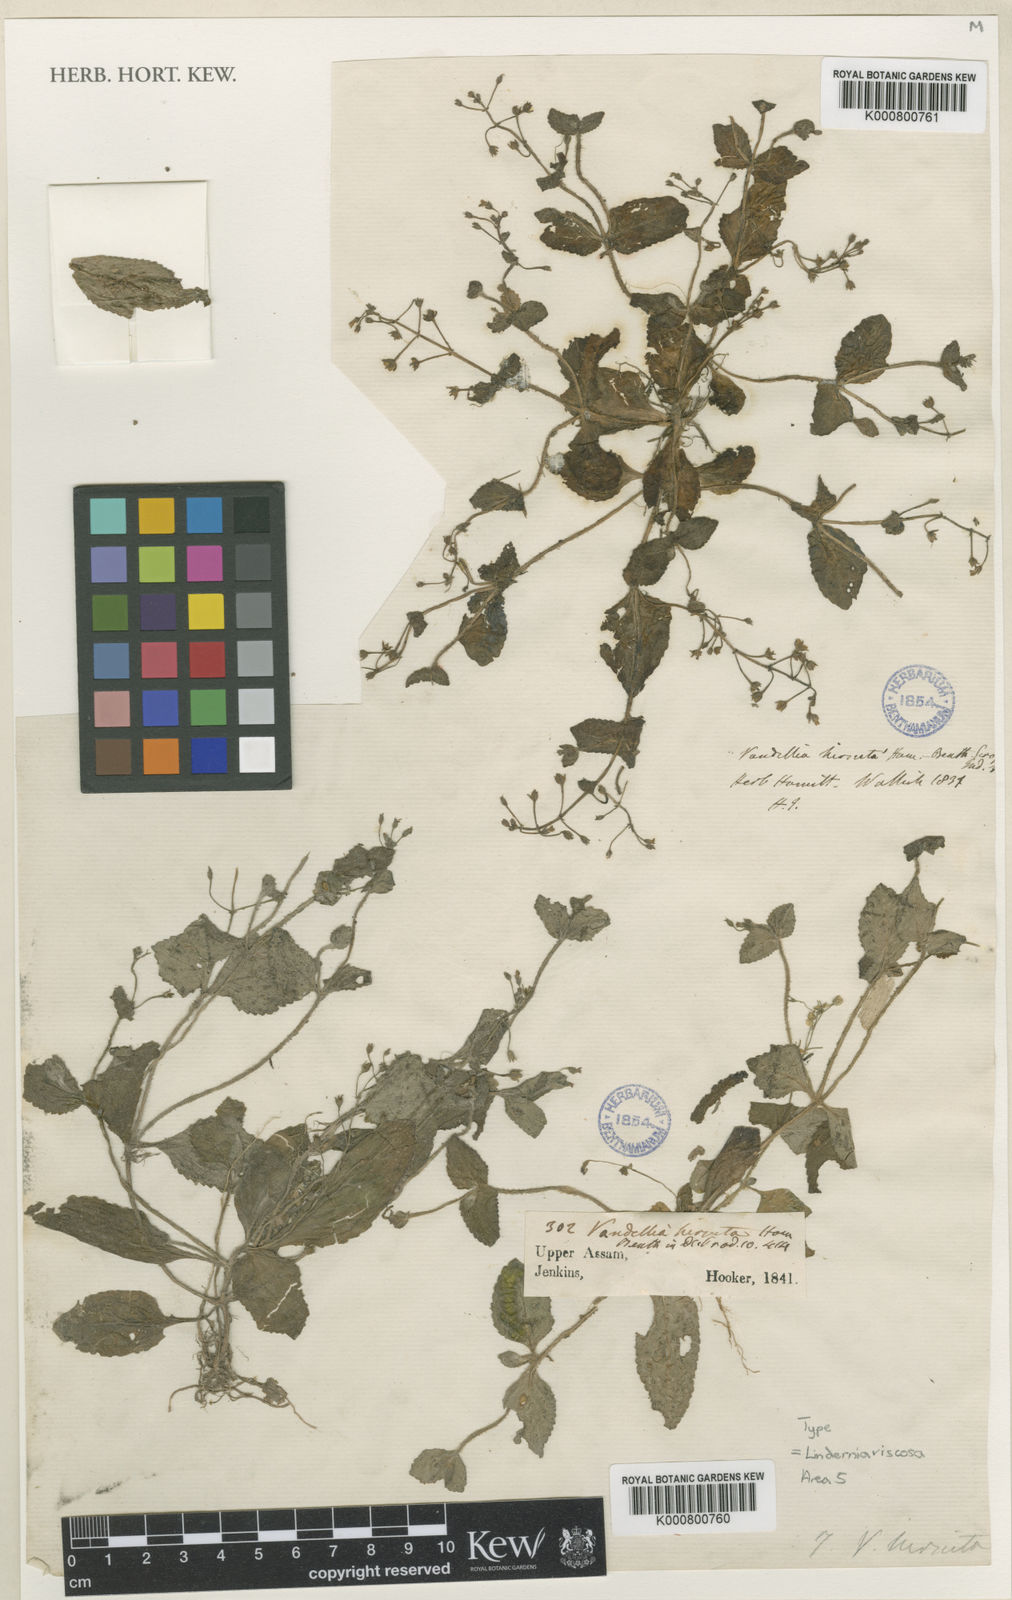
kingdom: Plantae
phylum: Tracheophyta
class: Magnoliopsida
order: Lamiales
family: Linderniaceae
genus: Lindernia
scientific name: Lindernia
